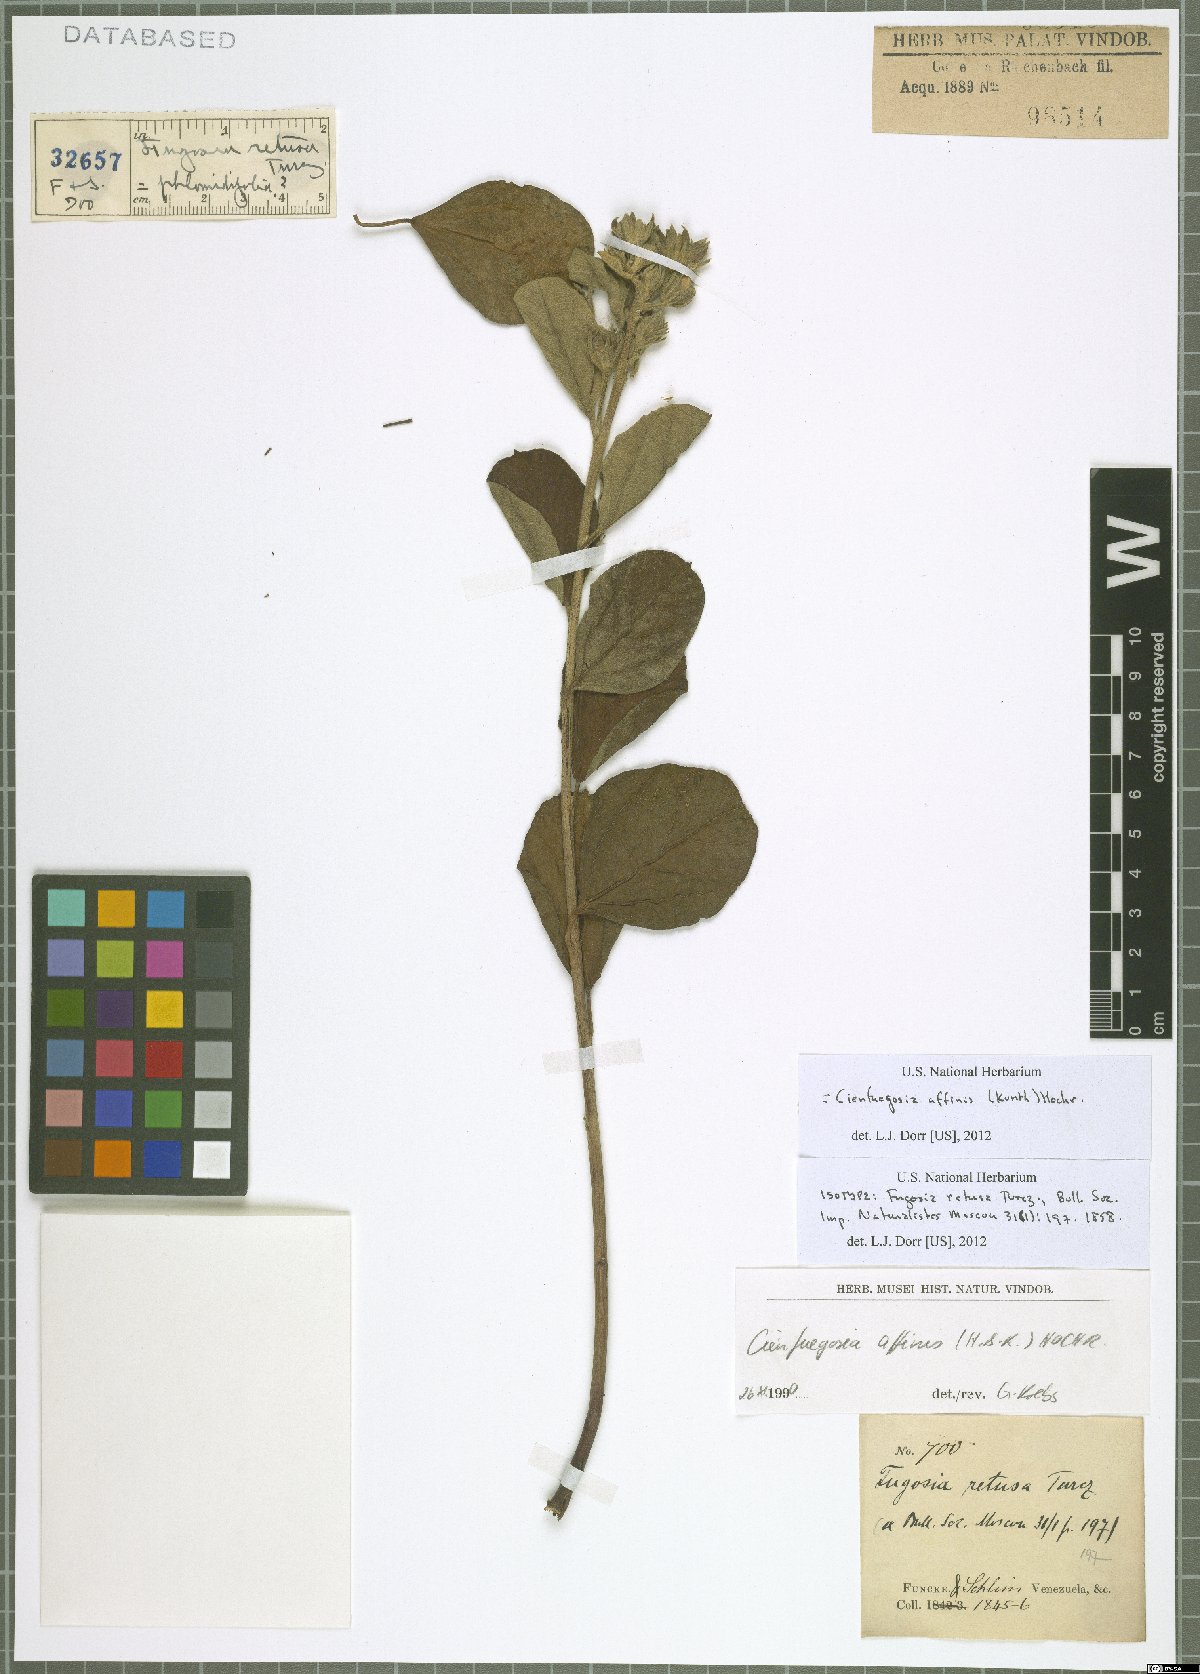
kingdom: Plantae
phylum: Tracheophyta
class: Magnoliopsida
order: Malvales
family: Malvaceae
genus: Cienfuegosia
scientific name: Cienfuegosia affinis
